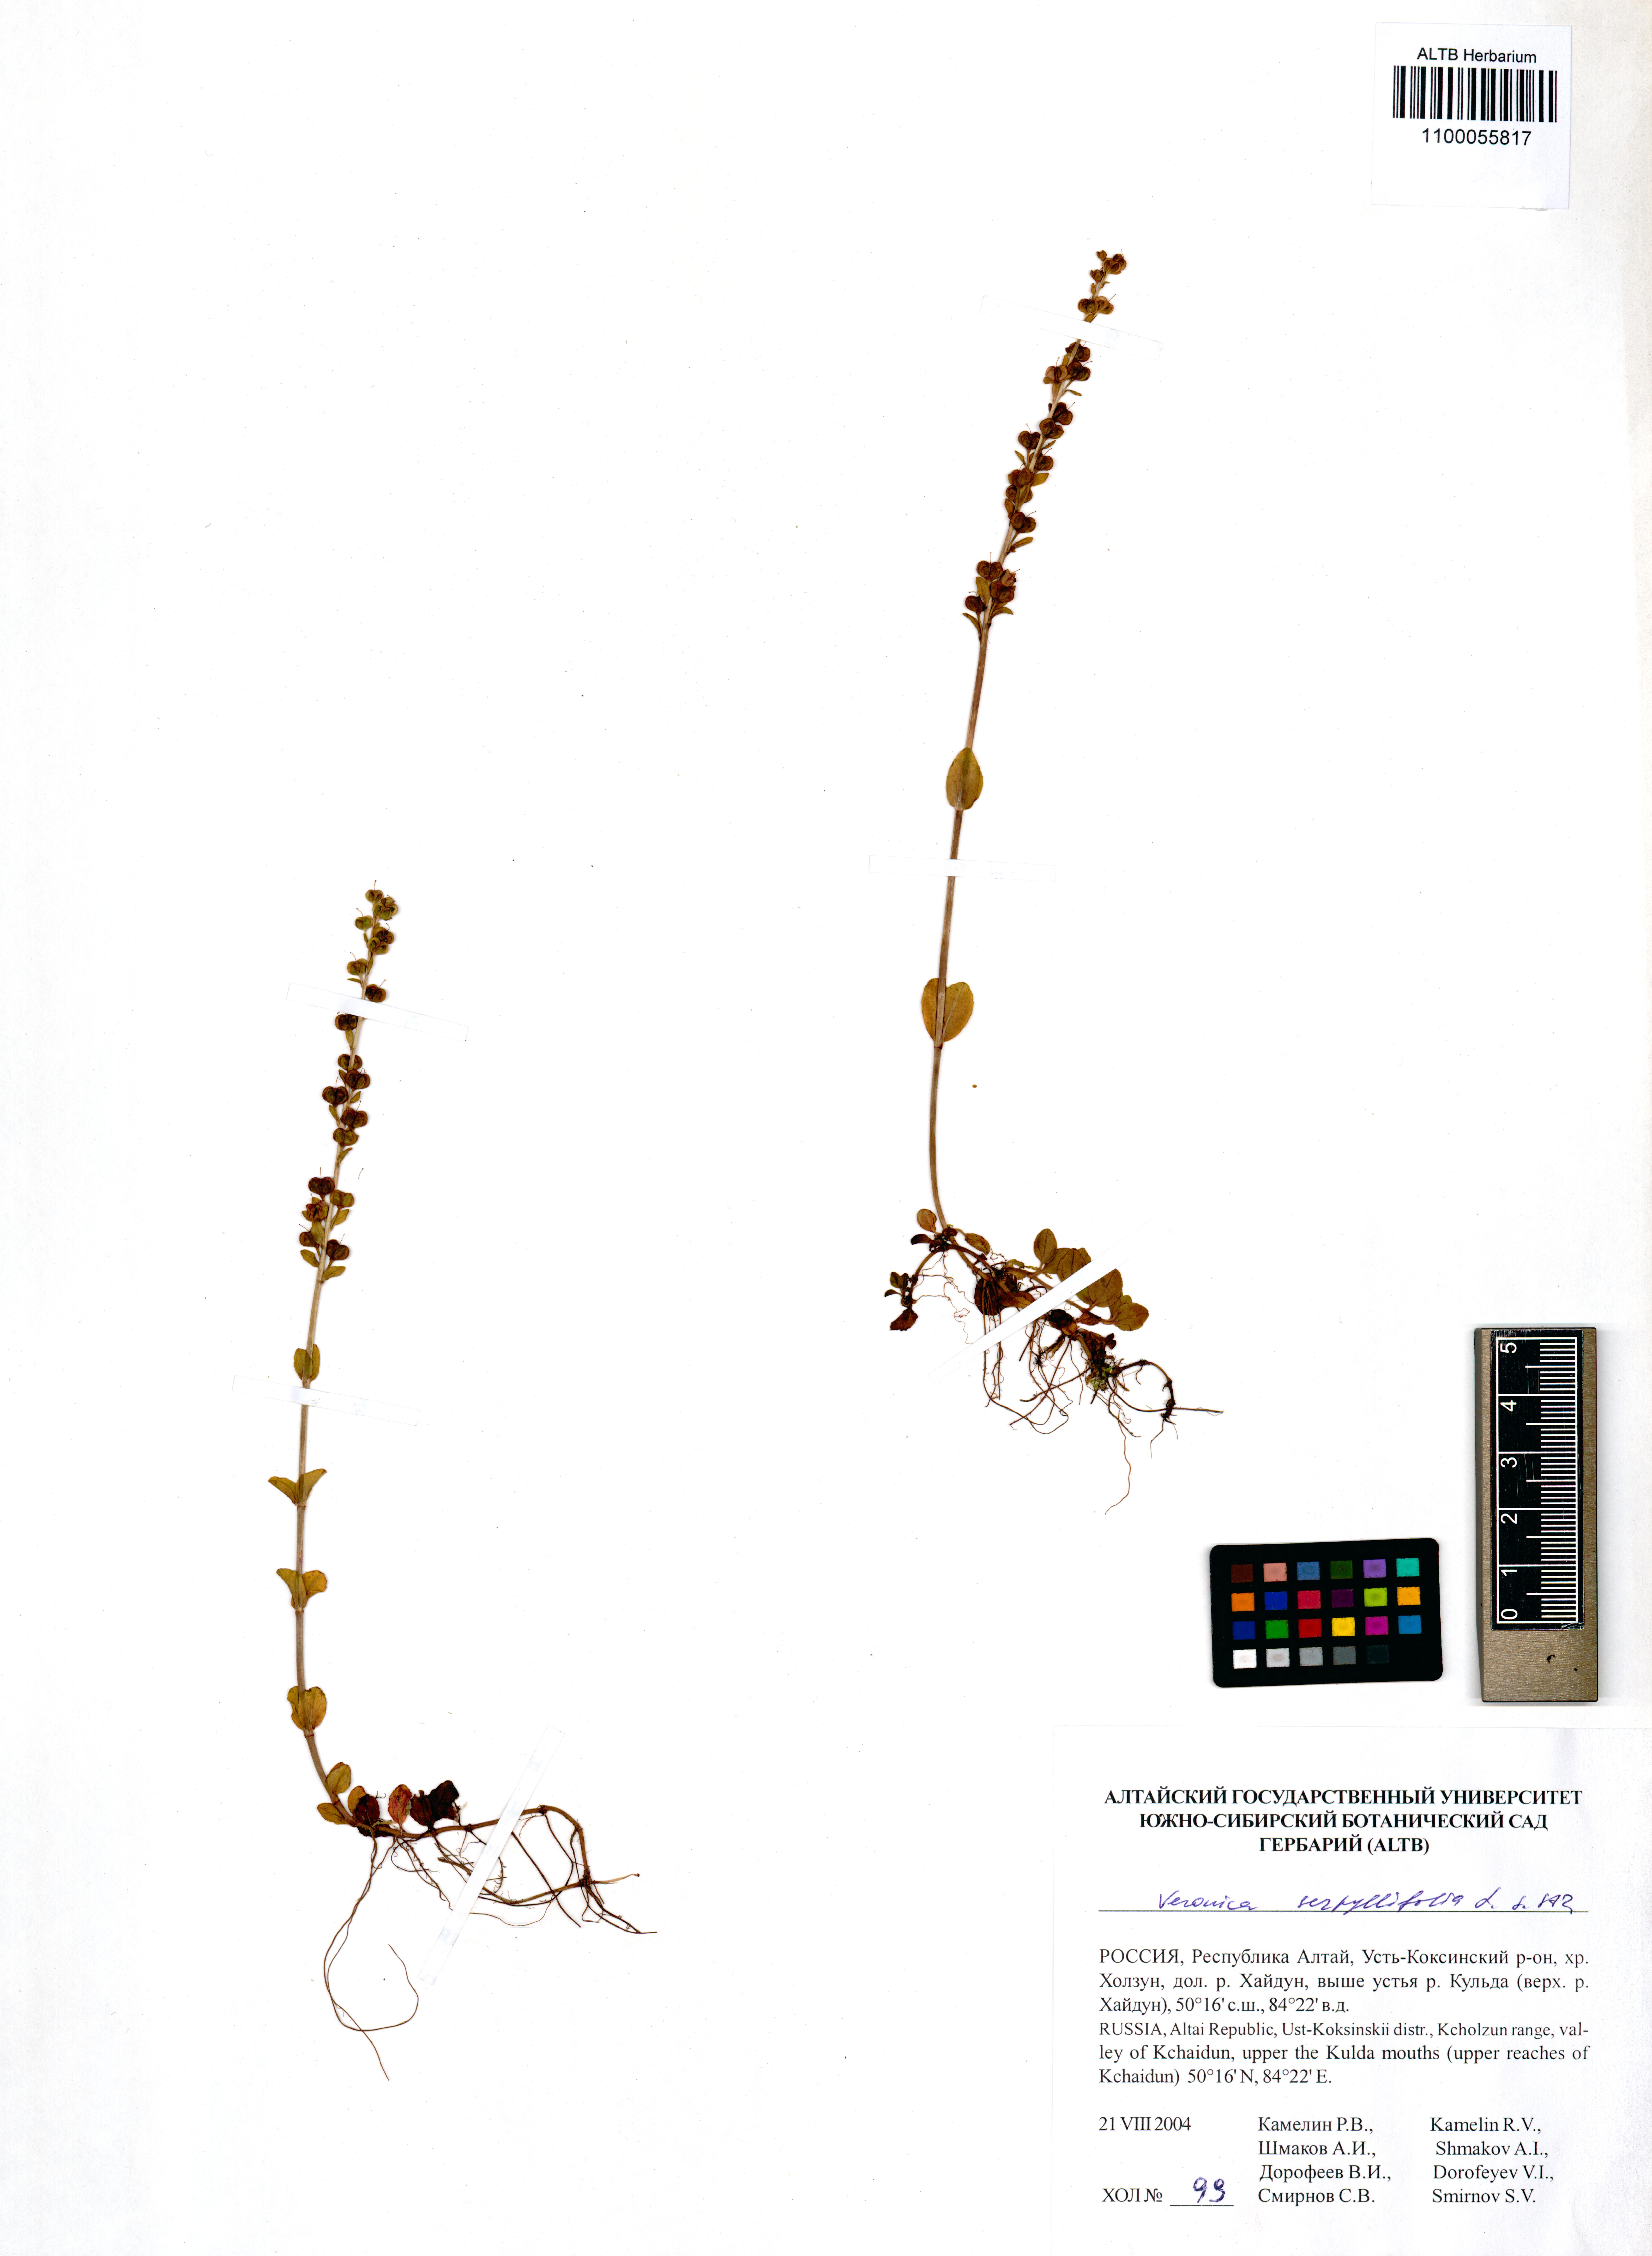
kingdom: Plantae
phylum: Tracheophyta
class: Magnoliopsida
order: Lamiales
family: Plantaginaceae
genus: Veronica
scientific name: Veronica serpyllifolia
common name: Thyme-leaved speedwell
